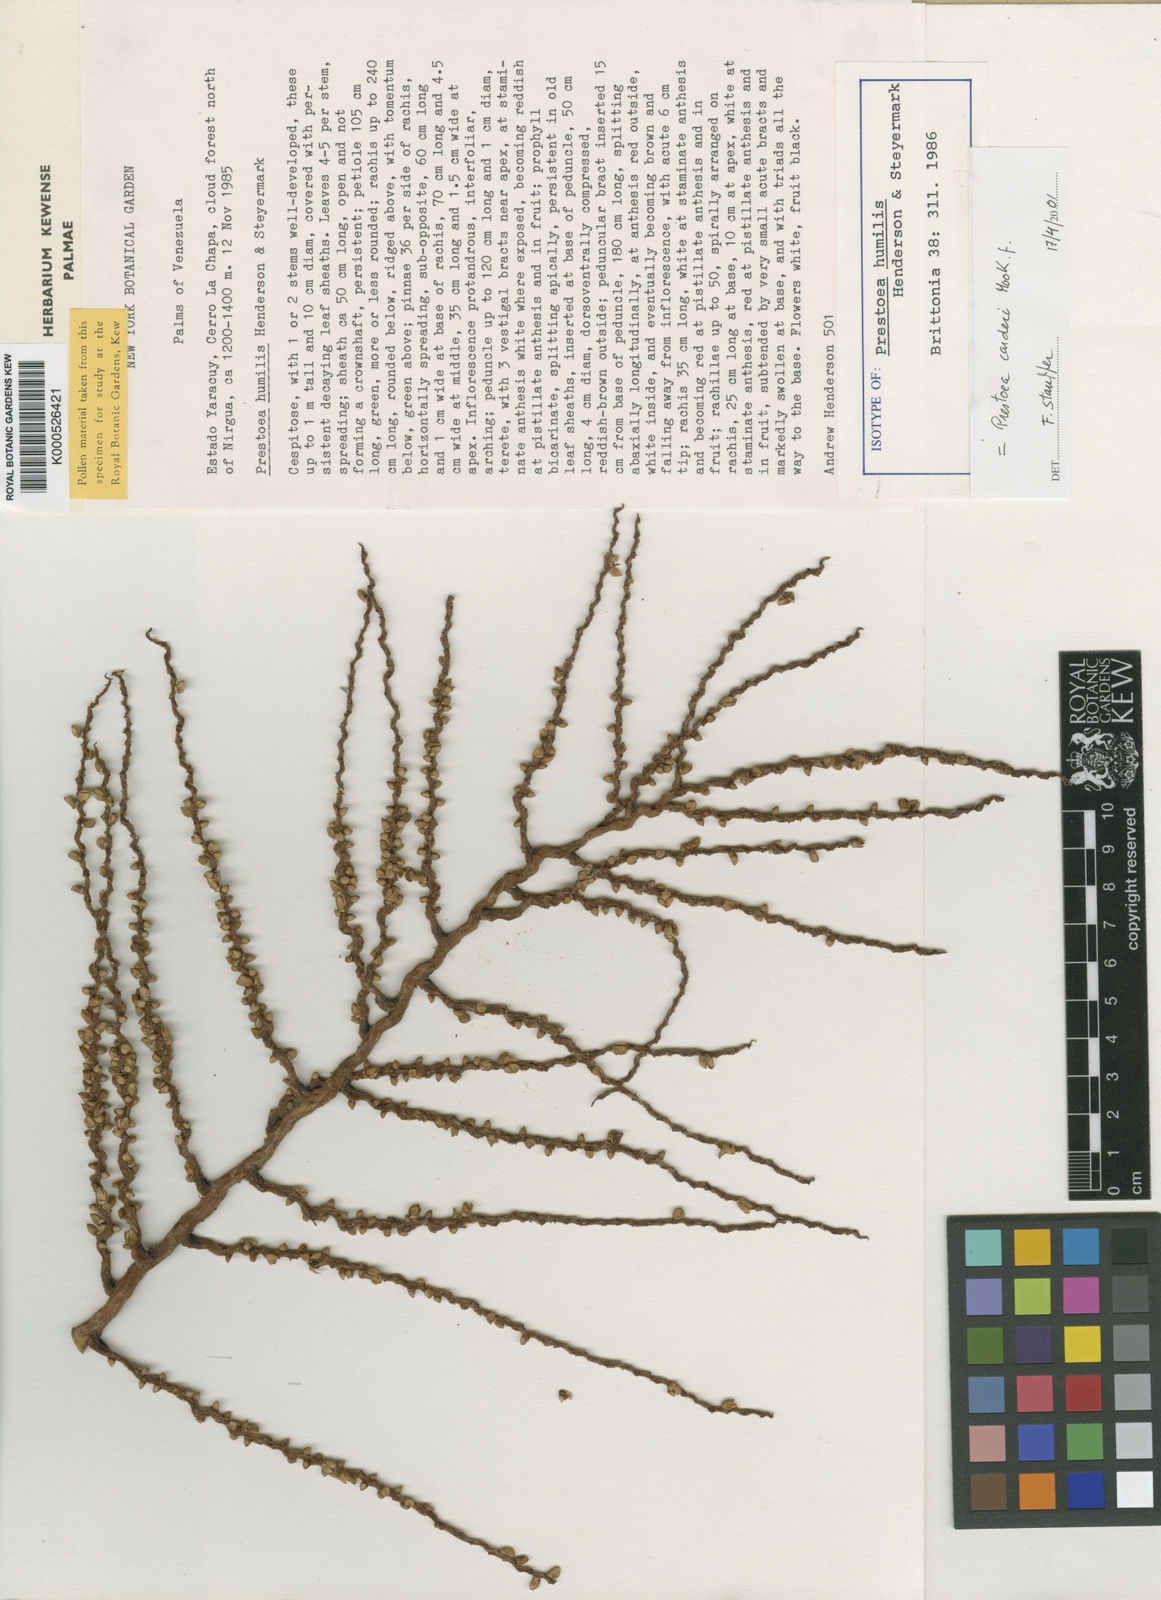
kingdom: Plantae
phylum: Tracheophyta
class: Liliopsida
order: Arecales
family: Arecaceae
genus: Prestoea
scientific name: Prestoea carderi
